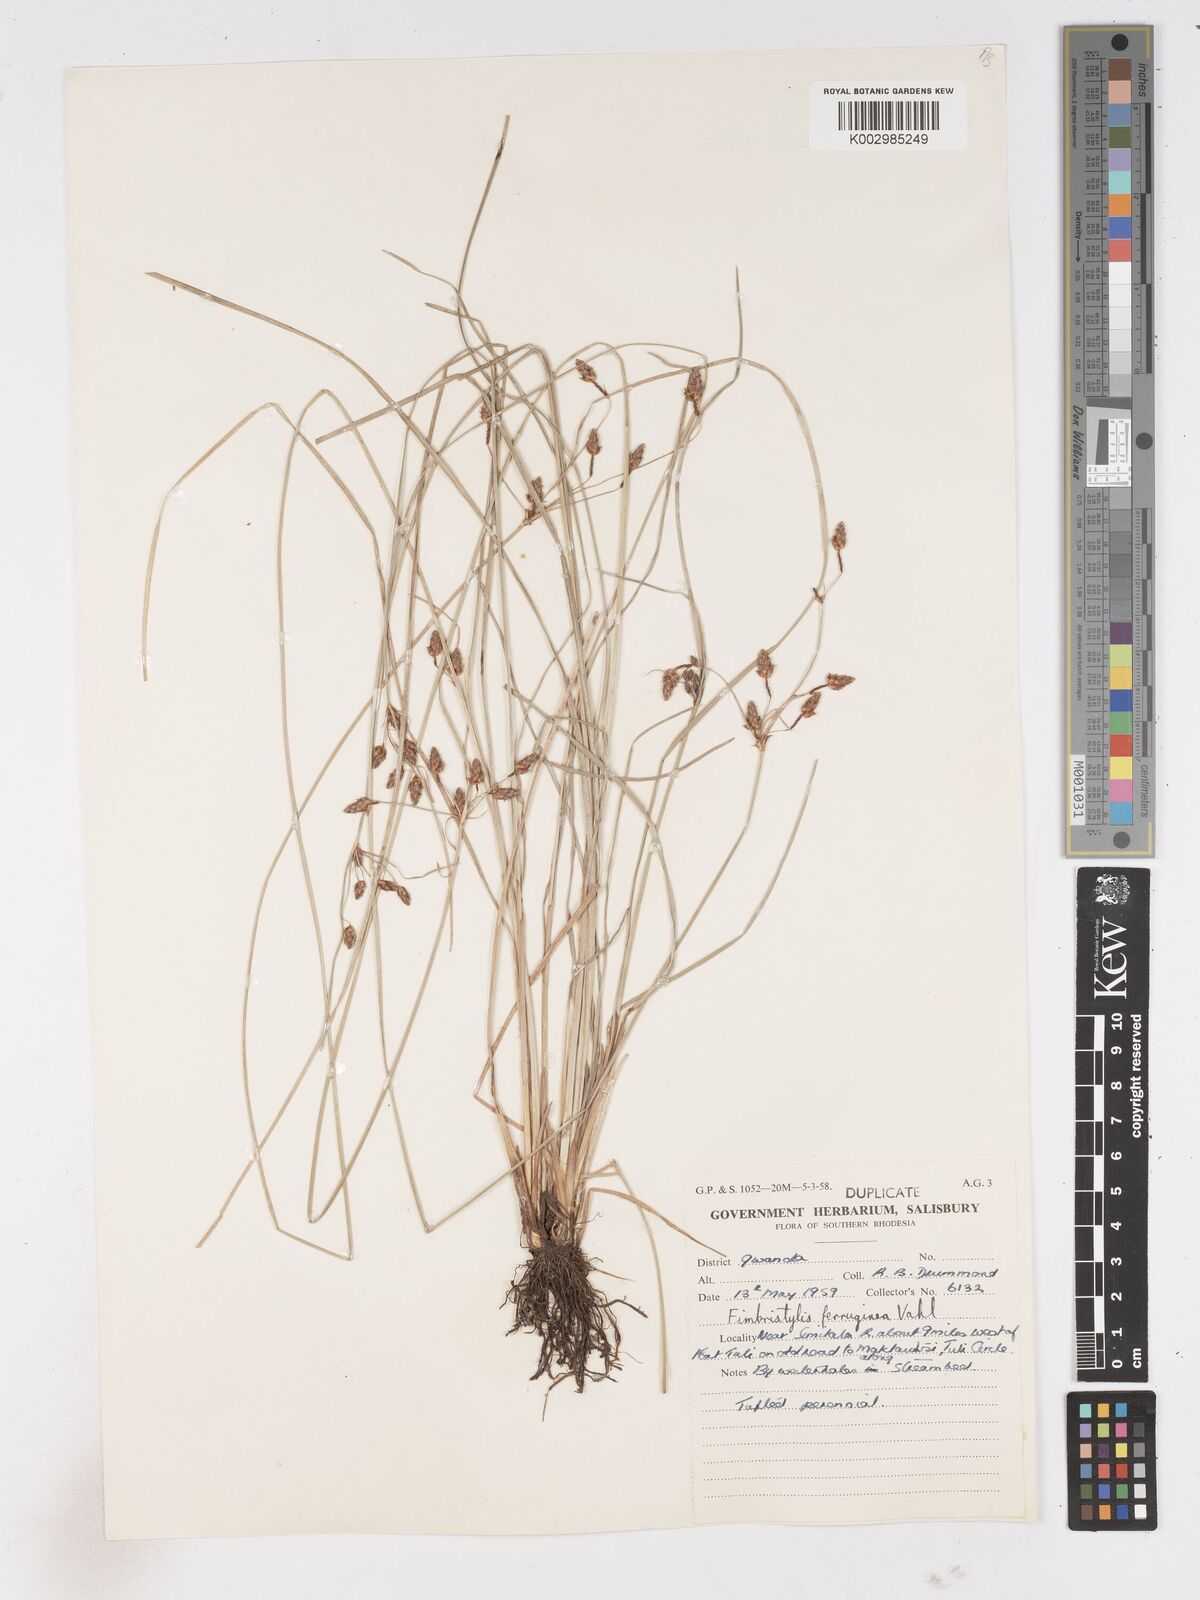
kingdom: Plantae
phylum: Tracheophyta
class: Liliopsida
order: Poales
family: Cyperaceae
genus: Fimbristylis
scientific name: Fimbristylis ferruginea
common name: West indian fimbry
